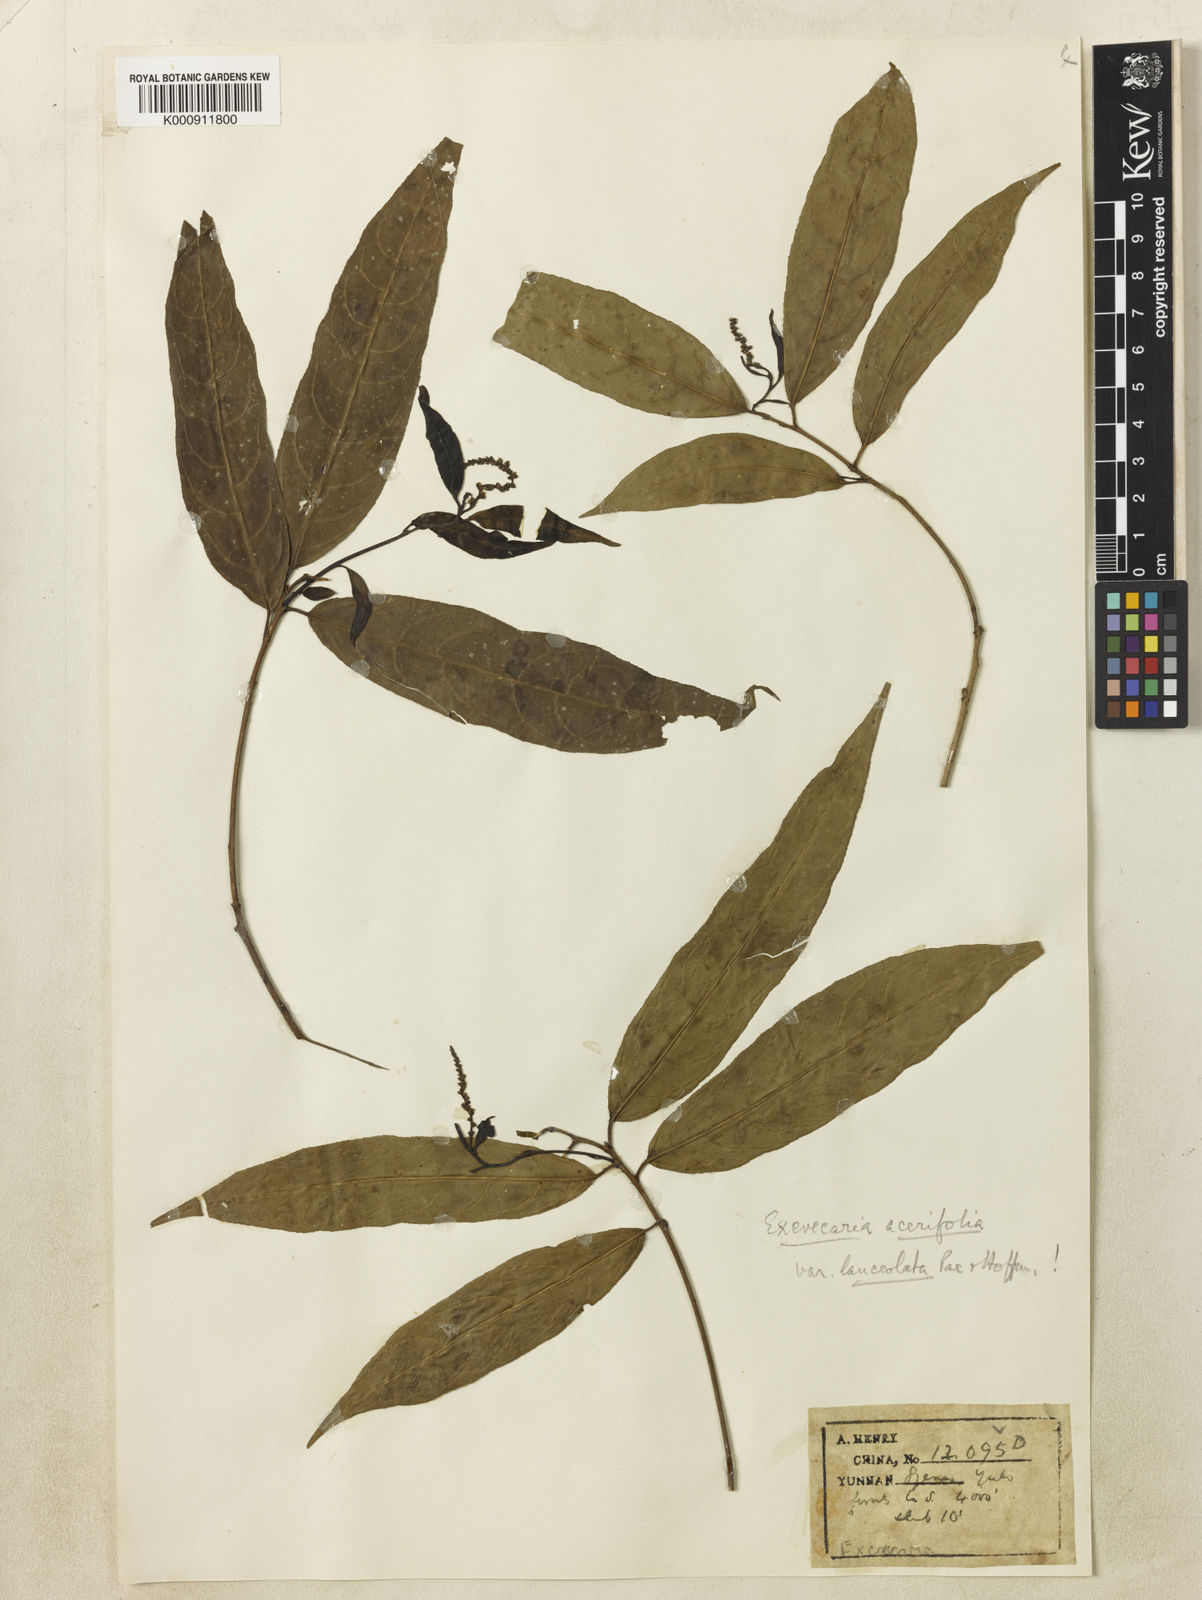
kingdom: Plantae
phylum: Tracheophyta
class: Magnoliopsida
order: Malpighiales
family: Euphorbiaceae
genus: Excoecaria
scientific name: Excoecaria
